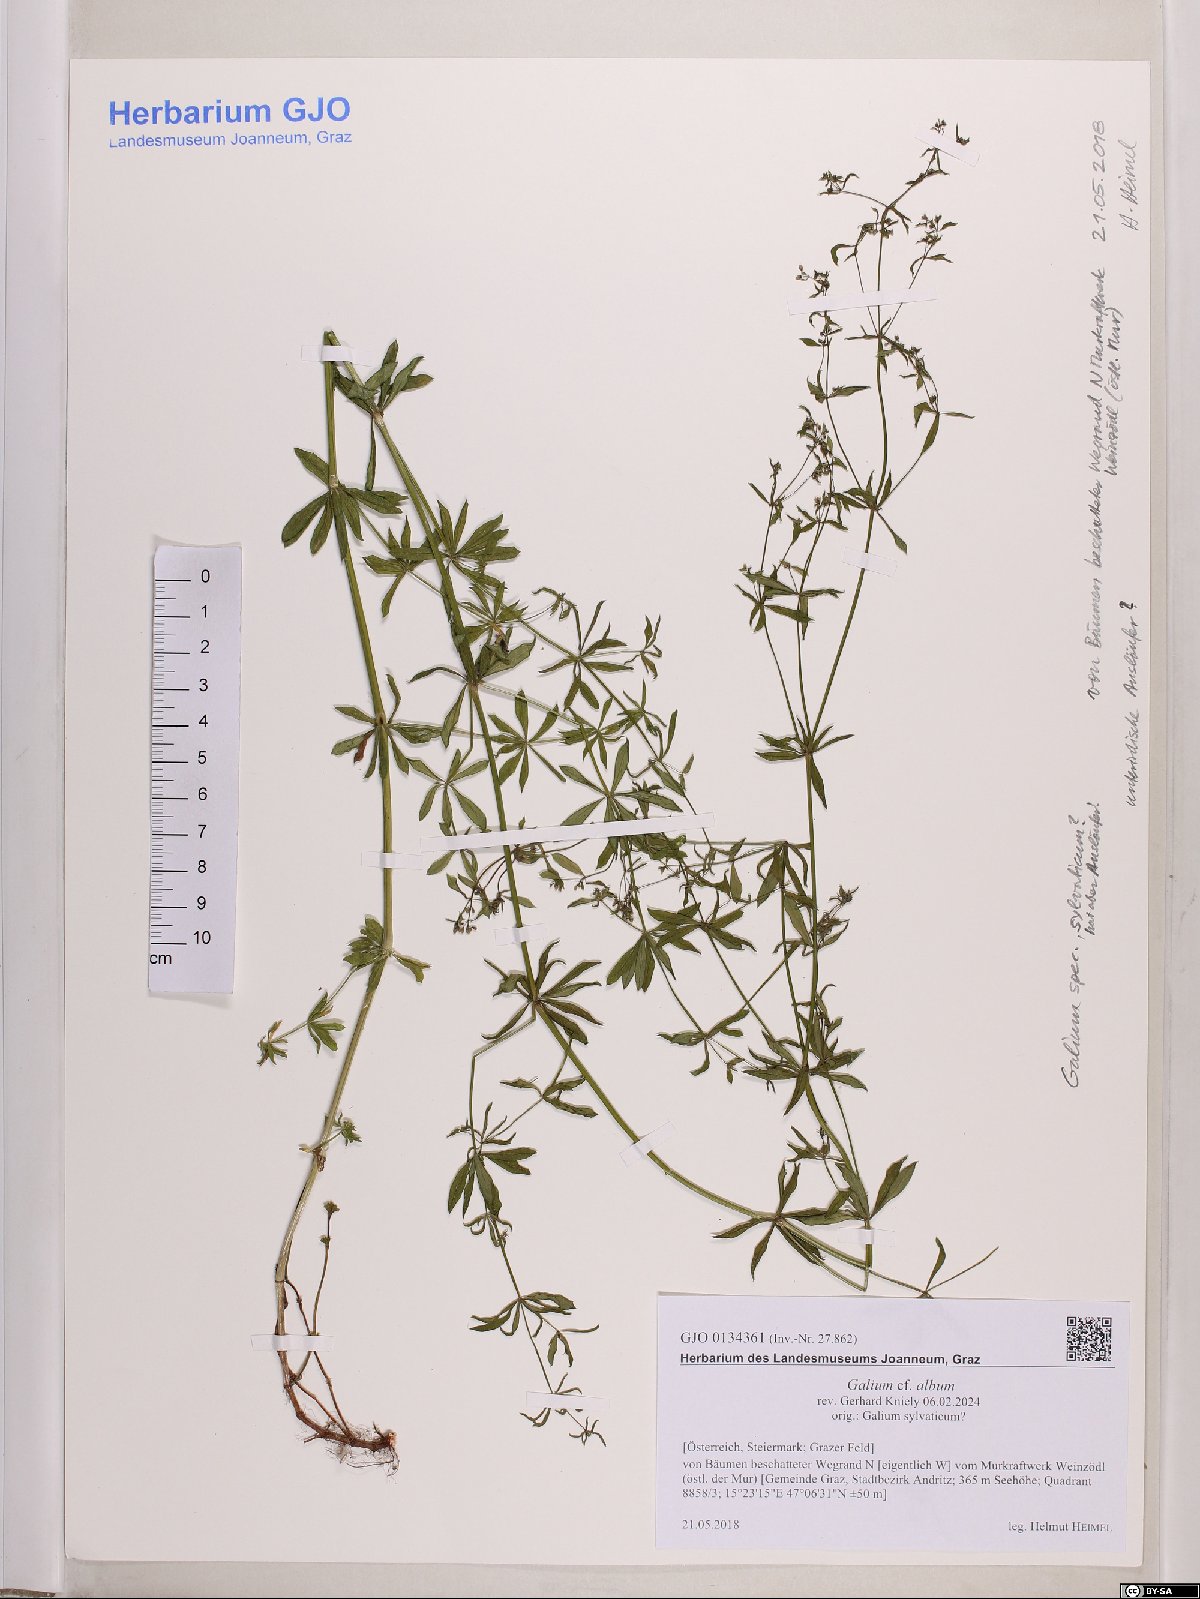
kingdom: Plantae
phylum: Tracheophyta
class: Magnoliopsida
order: Gentianales
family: Rubiaceae
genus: Galium
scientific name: Galium album
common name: White bedstraw
